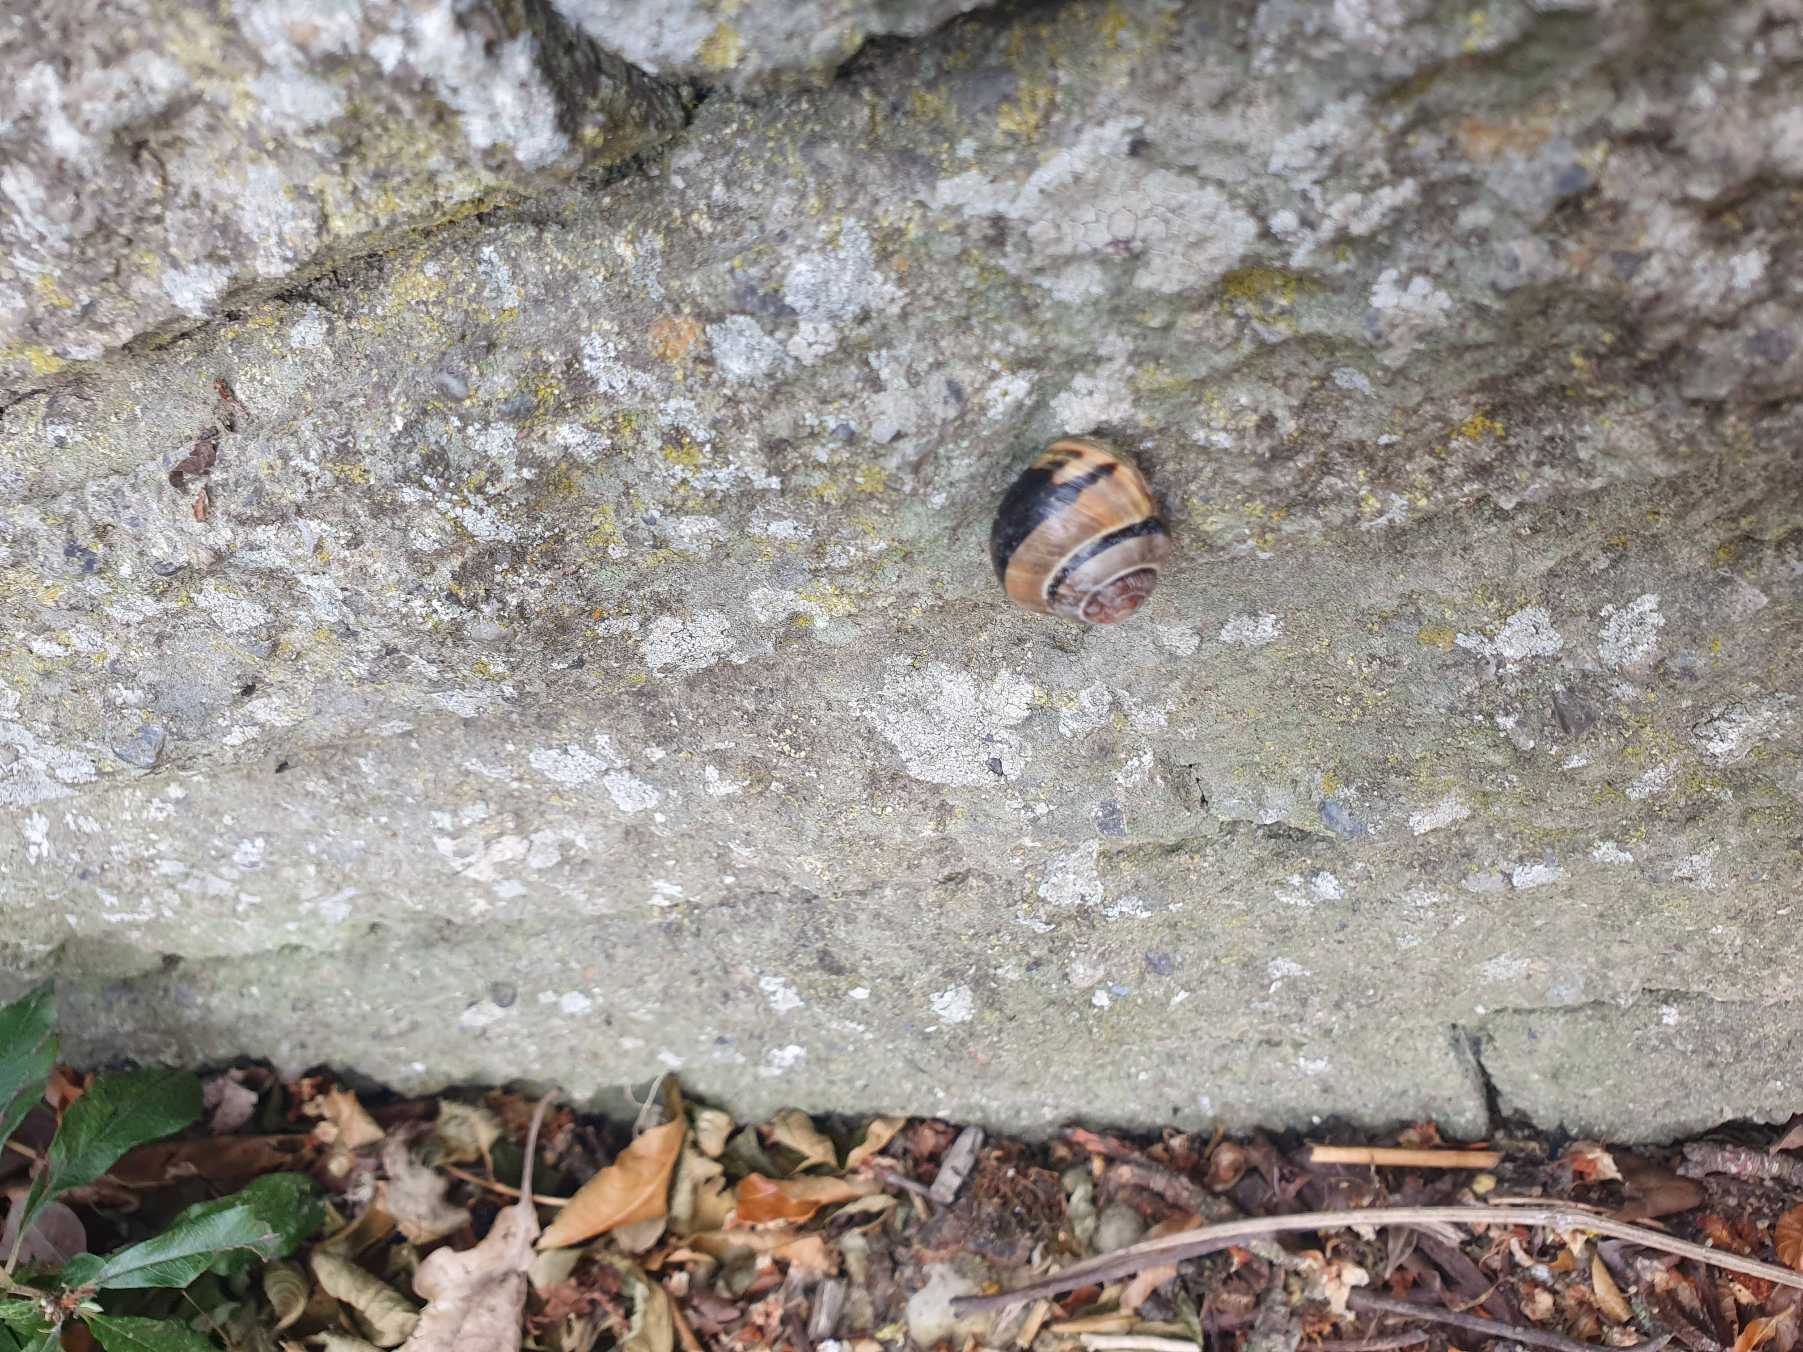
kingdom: Animalia
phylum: Mollusca
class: Gastropoda
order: Stylommatophora
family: Helicidae
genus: Cepaea
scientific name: Cepaea nemoralis
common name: Lundsnegl
